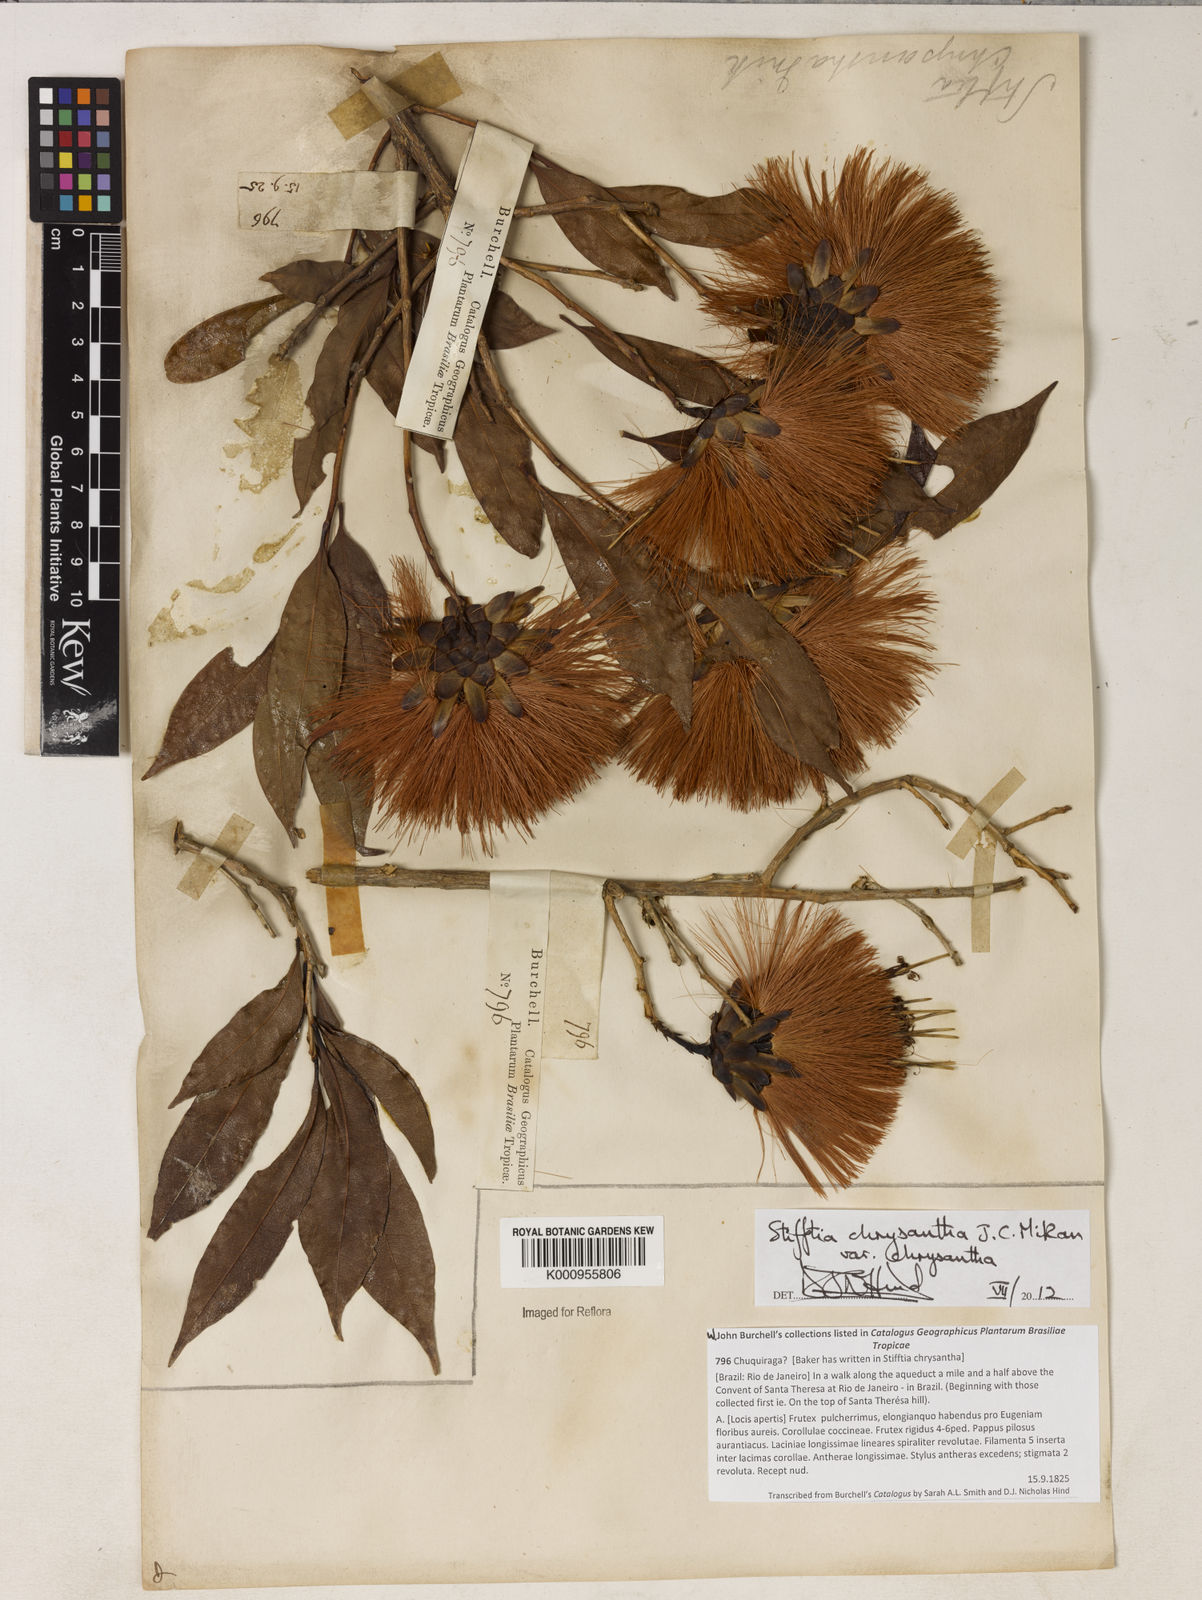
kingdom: Plantae
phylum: Tracheophyta
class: Magnoliopsida
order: Asterales
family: Asteraceae
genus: Stifftia
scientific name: Stifftia chrysantha
